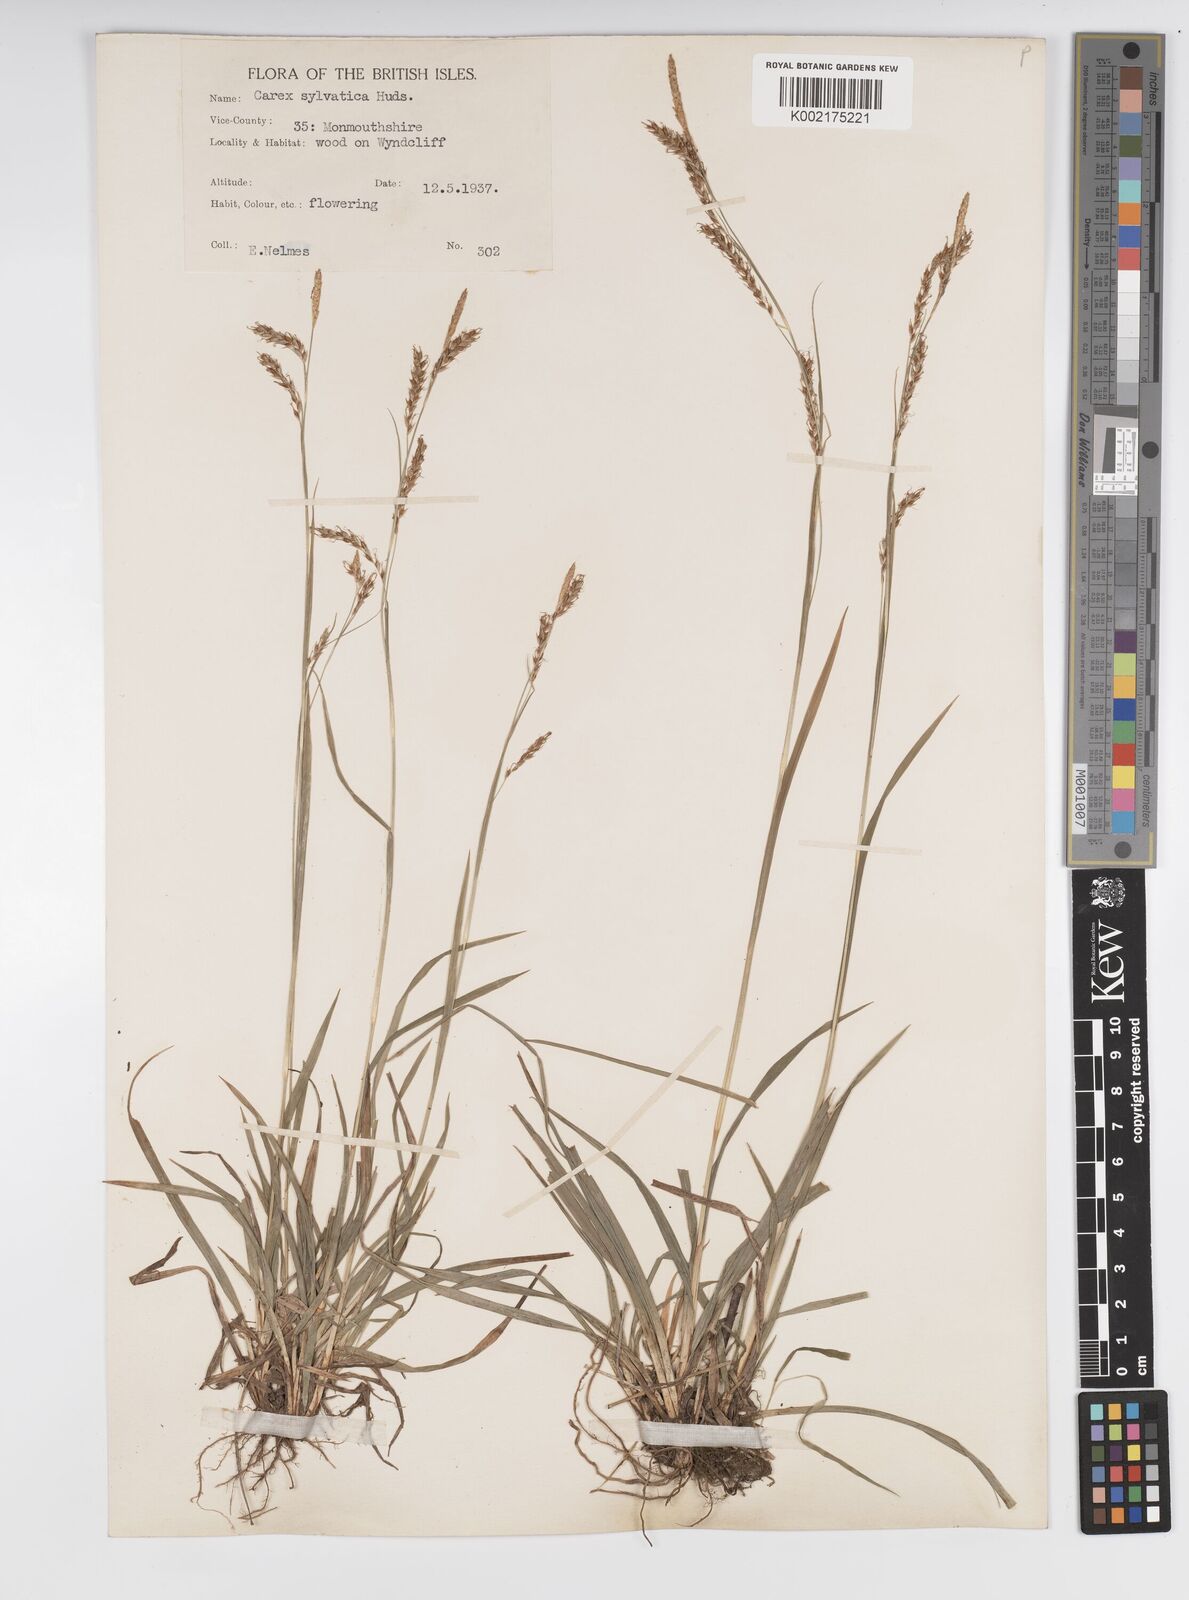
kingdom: Plantae
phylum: Tracheophyta
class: Liliopsida
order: Poales
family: Cyperaceae
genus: Carex
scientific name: Carex sylvatica
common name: Wood-sedge
